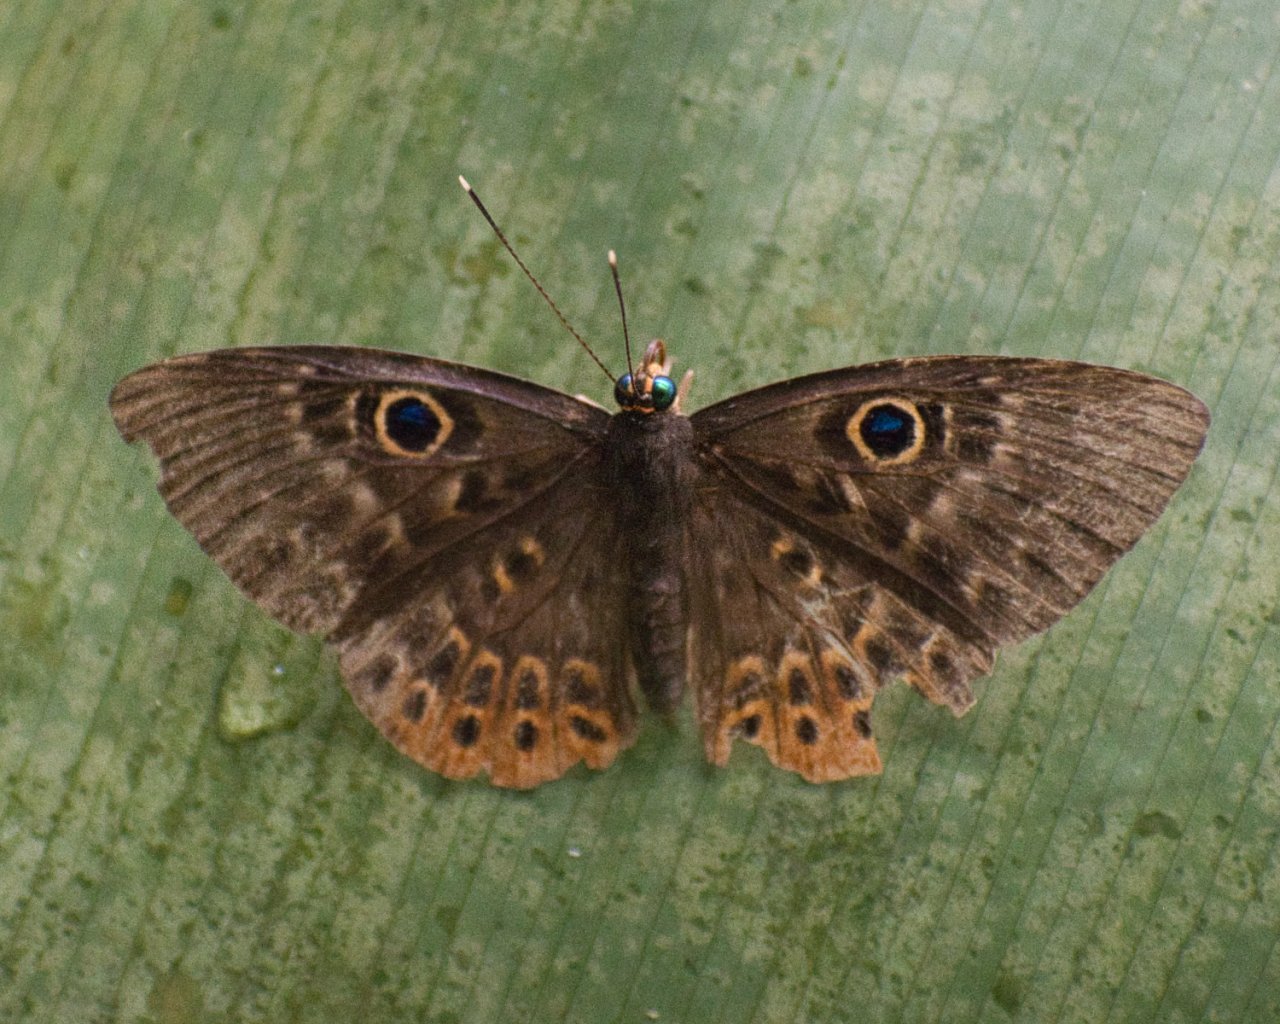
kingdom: Animalia
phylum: Cnidaria
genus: Eurybia
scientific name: Eurybia patrona
